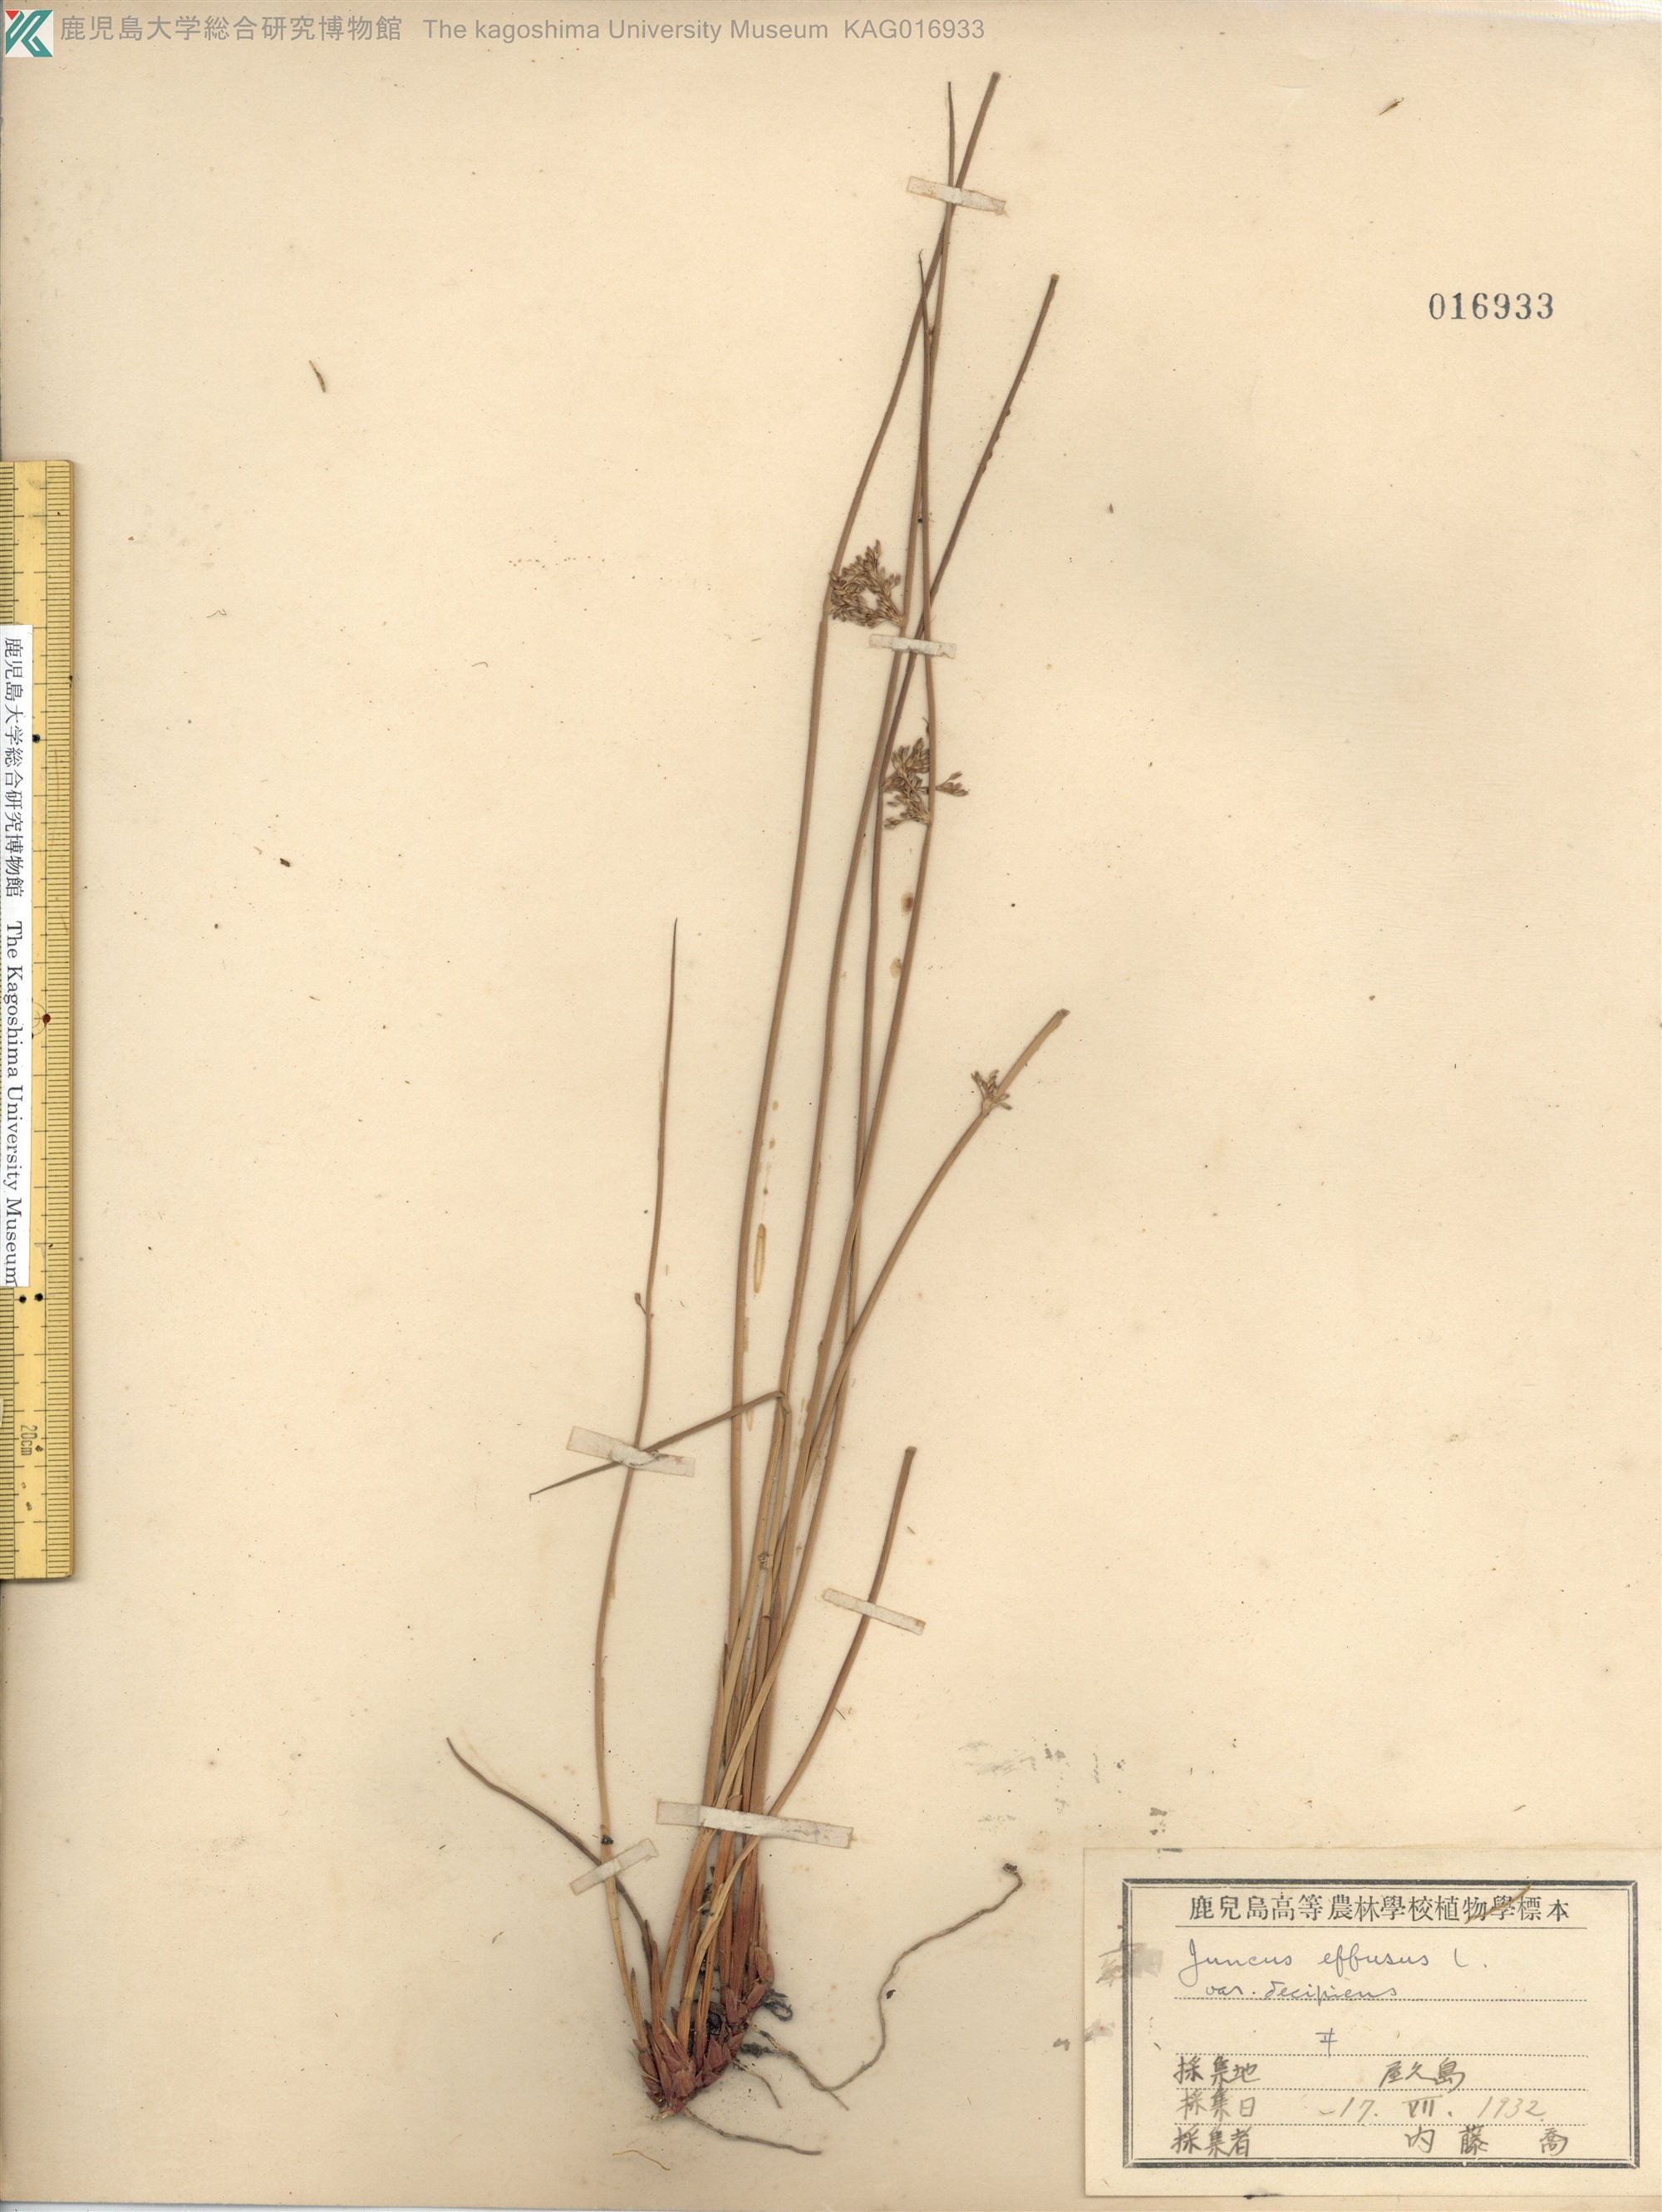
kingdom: Plantae
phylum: Tracheophyta
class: Liliopsida
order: Poales
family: Juncaceae
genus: Juncus
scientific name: Juncus decipiens
